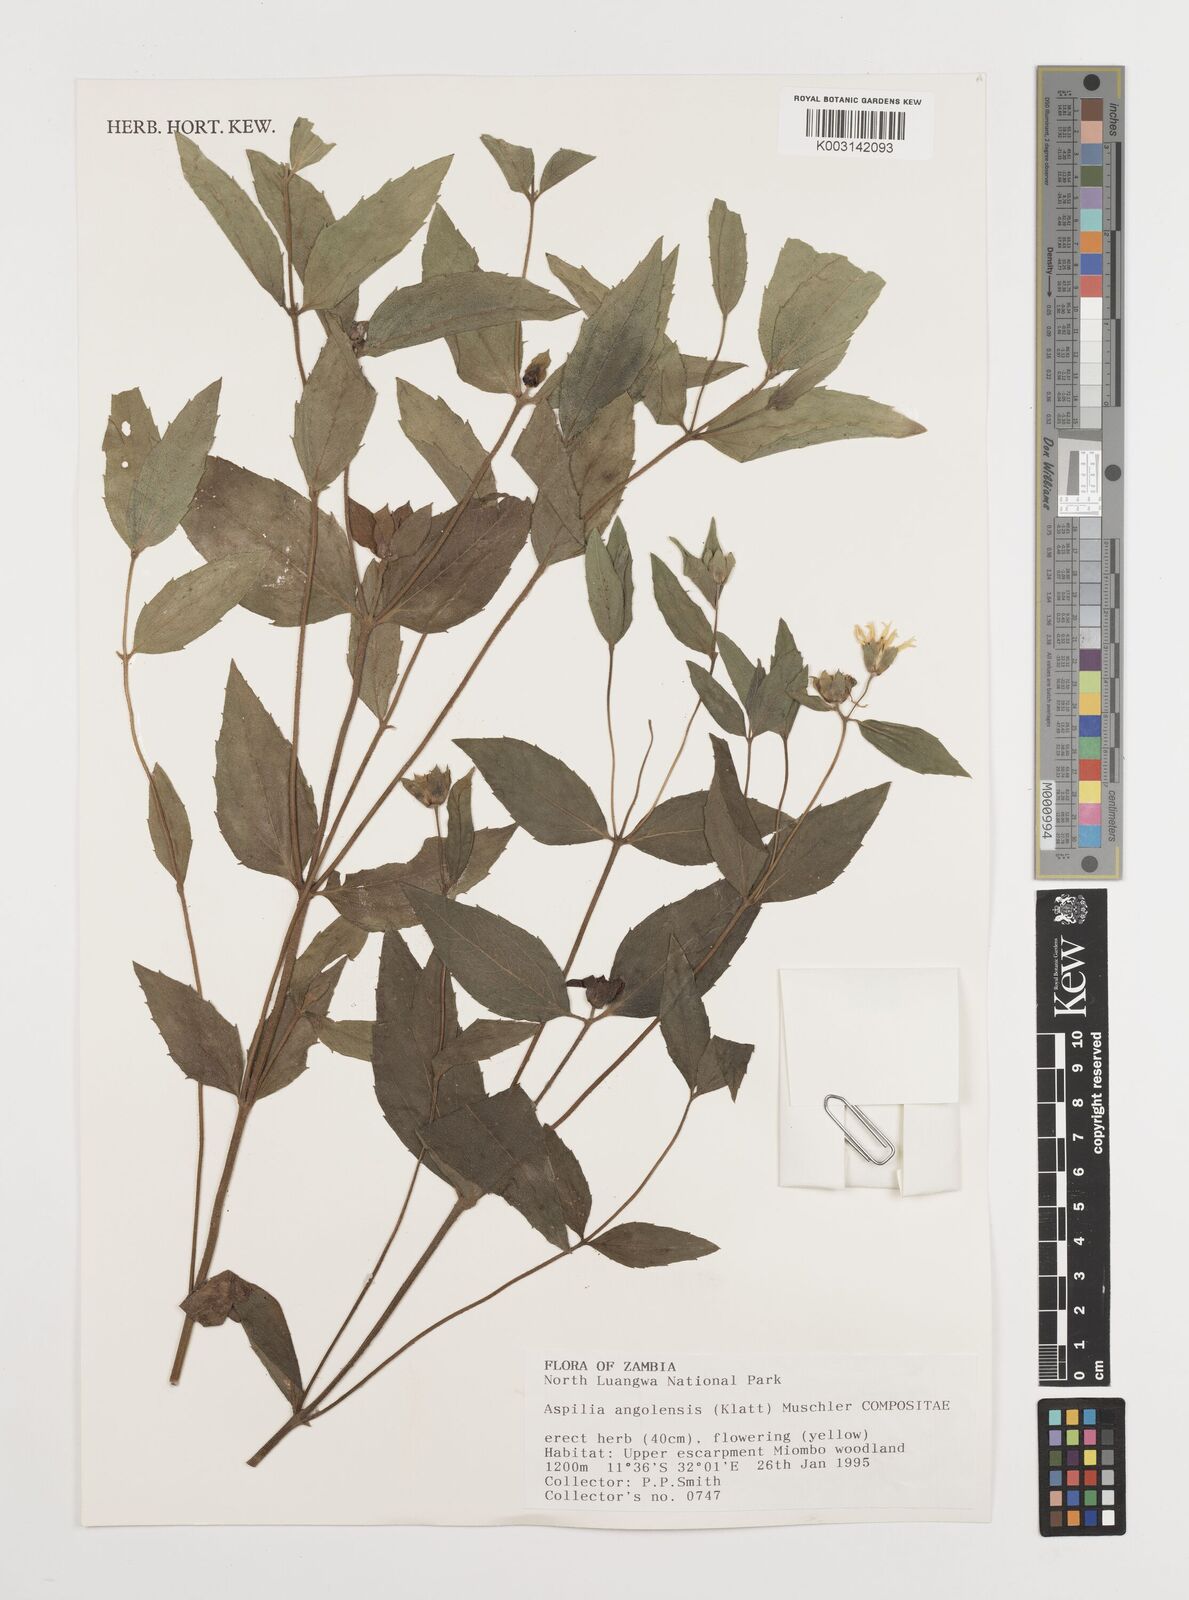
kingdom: Plantae
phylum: Tracheophyta
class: Magnoliopsida
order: Asterales
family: Asteraceae
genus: Aspilia
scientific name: Aspilia angolensis
